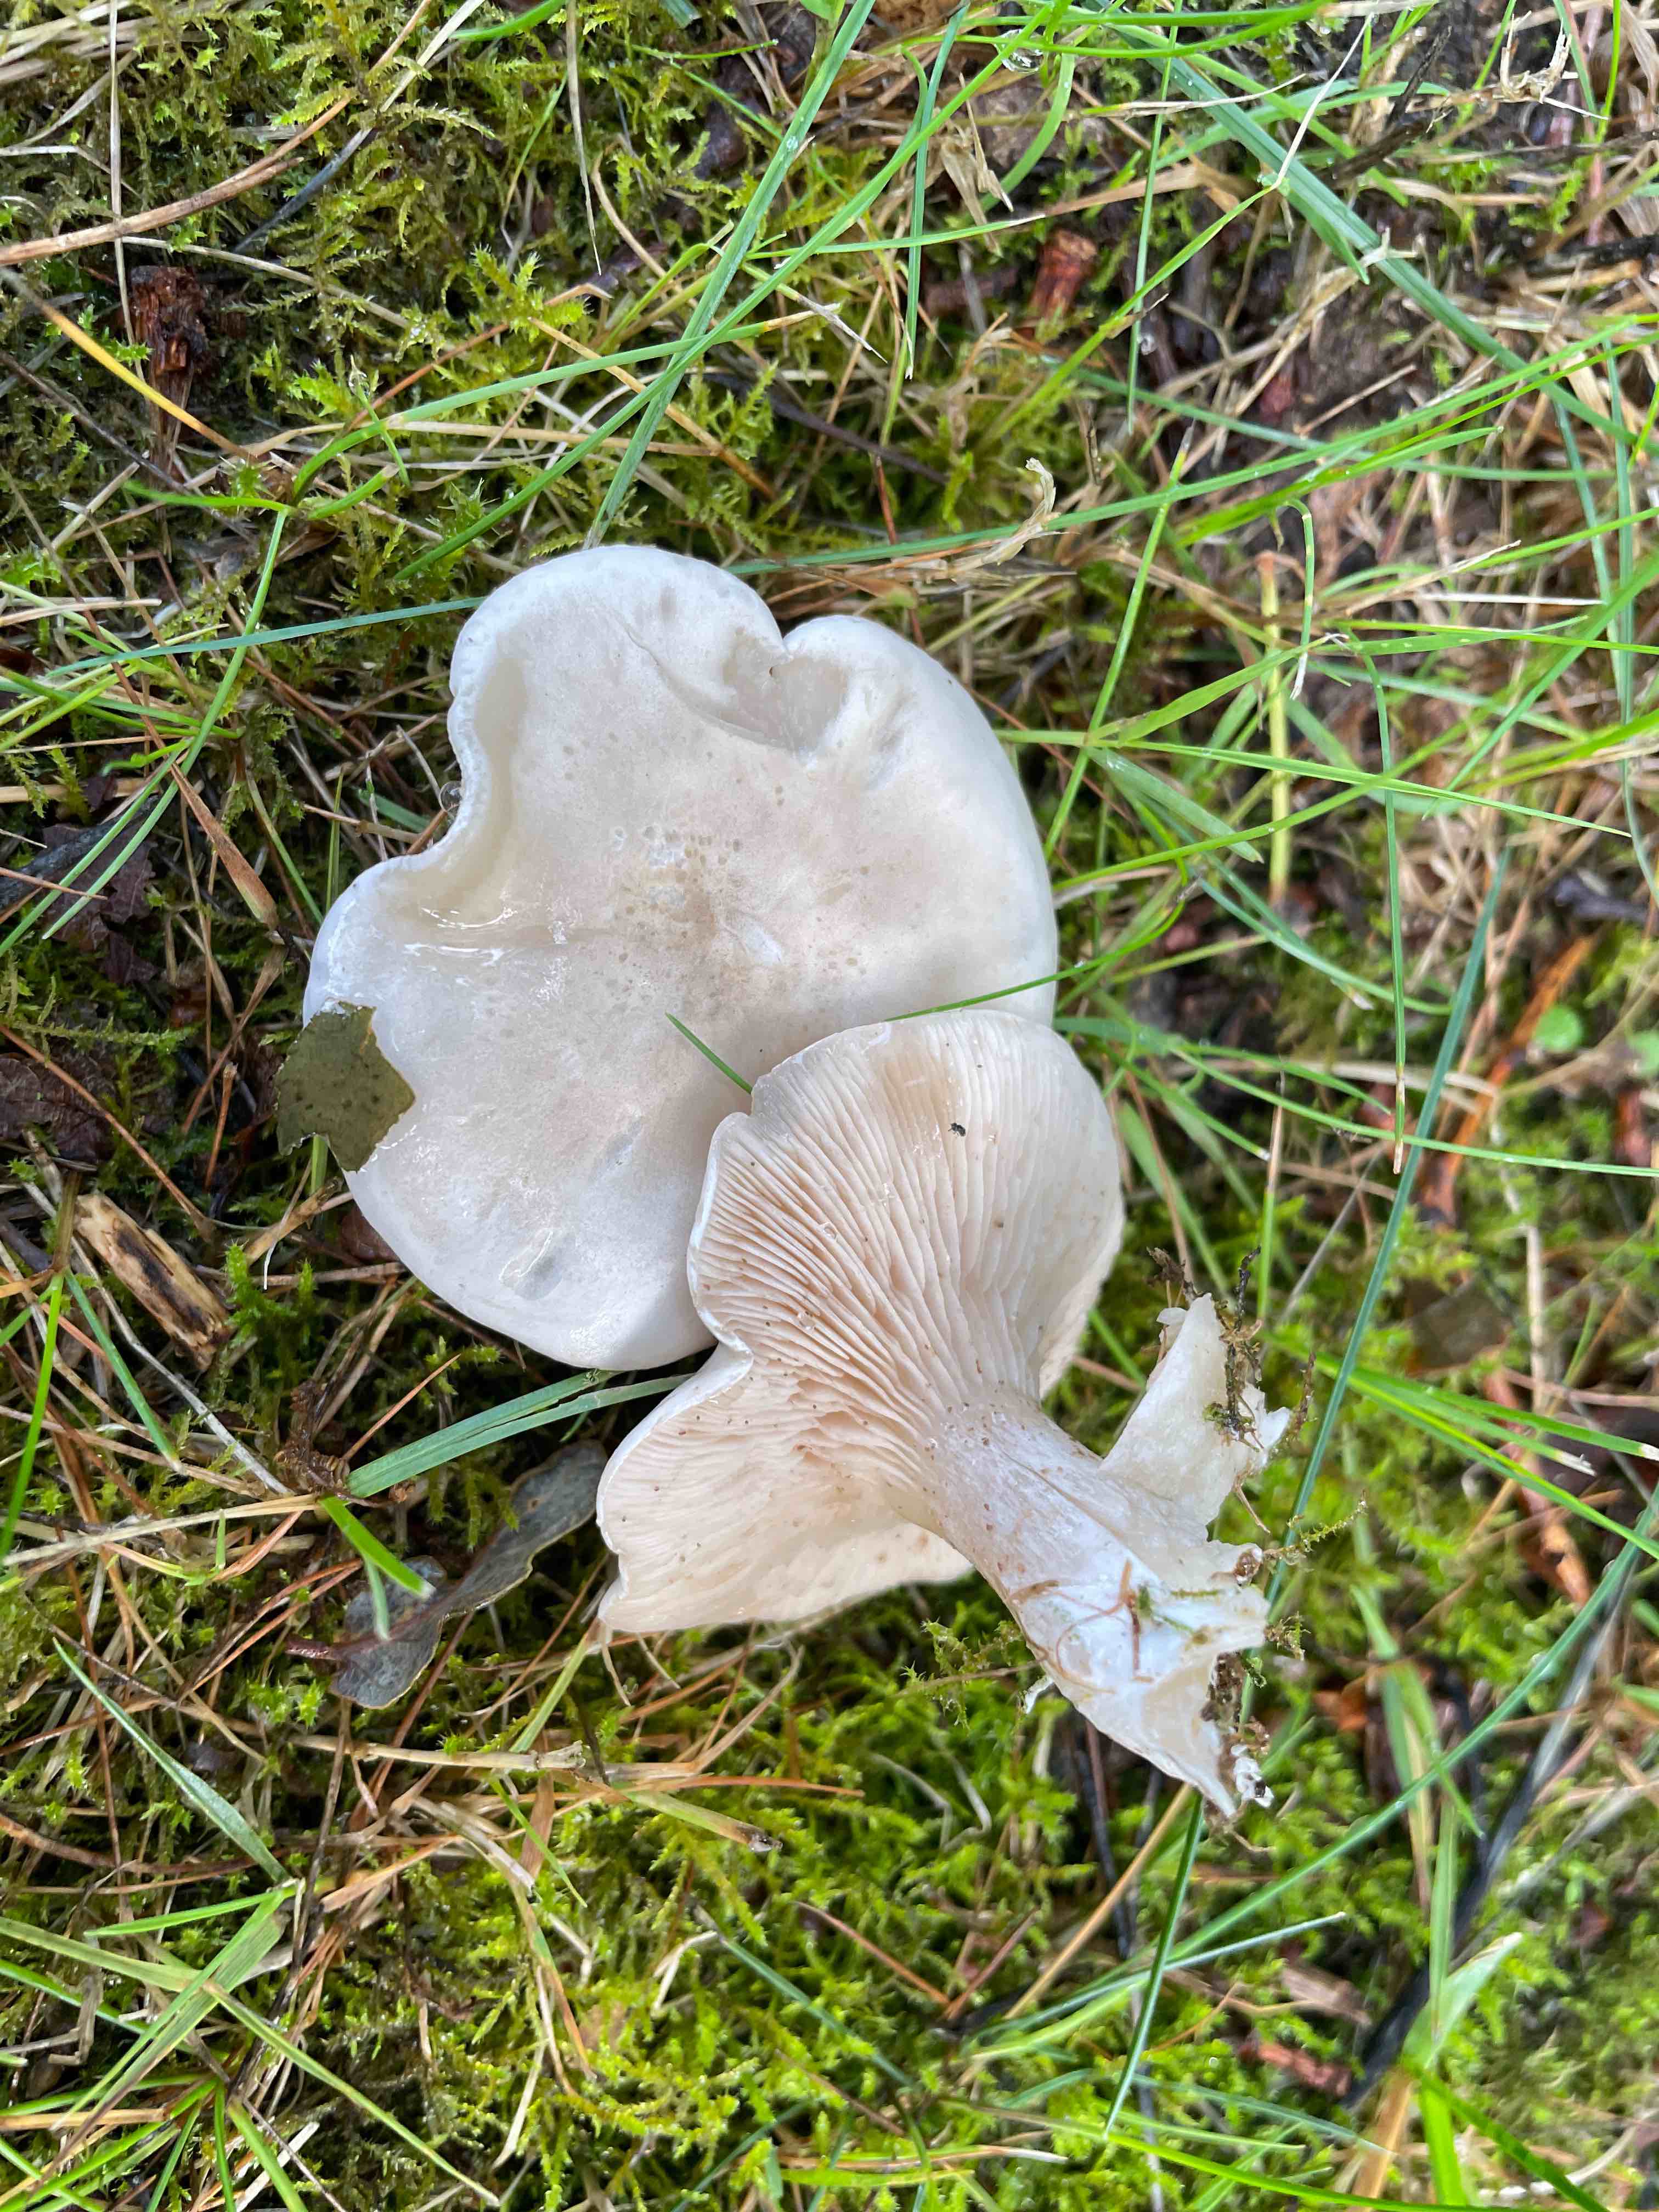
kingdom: Fungi
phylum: Basidiomycota
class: Agaricomycetes
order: Agaricales
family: Entolomataceae
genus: Clitopilus
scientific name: Clitopilus prunulus
